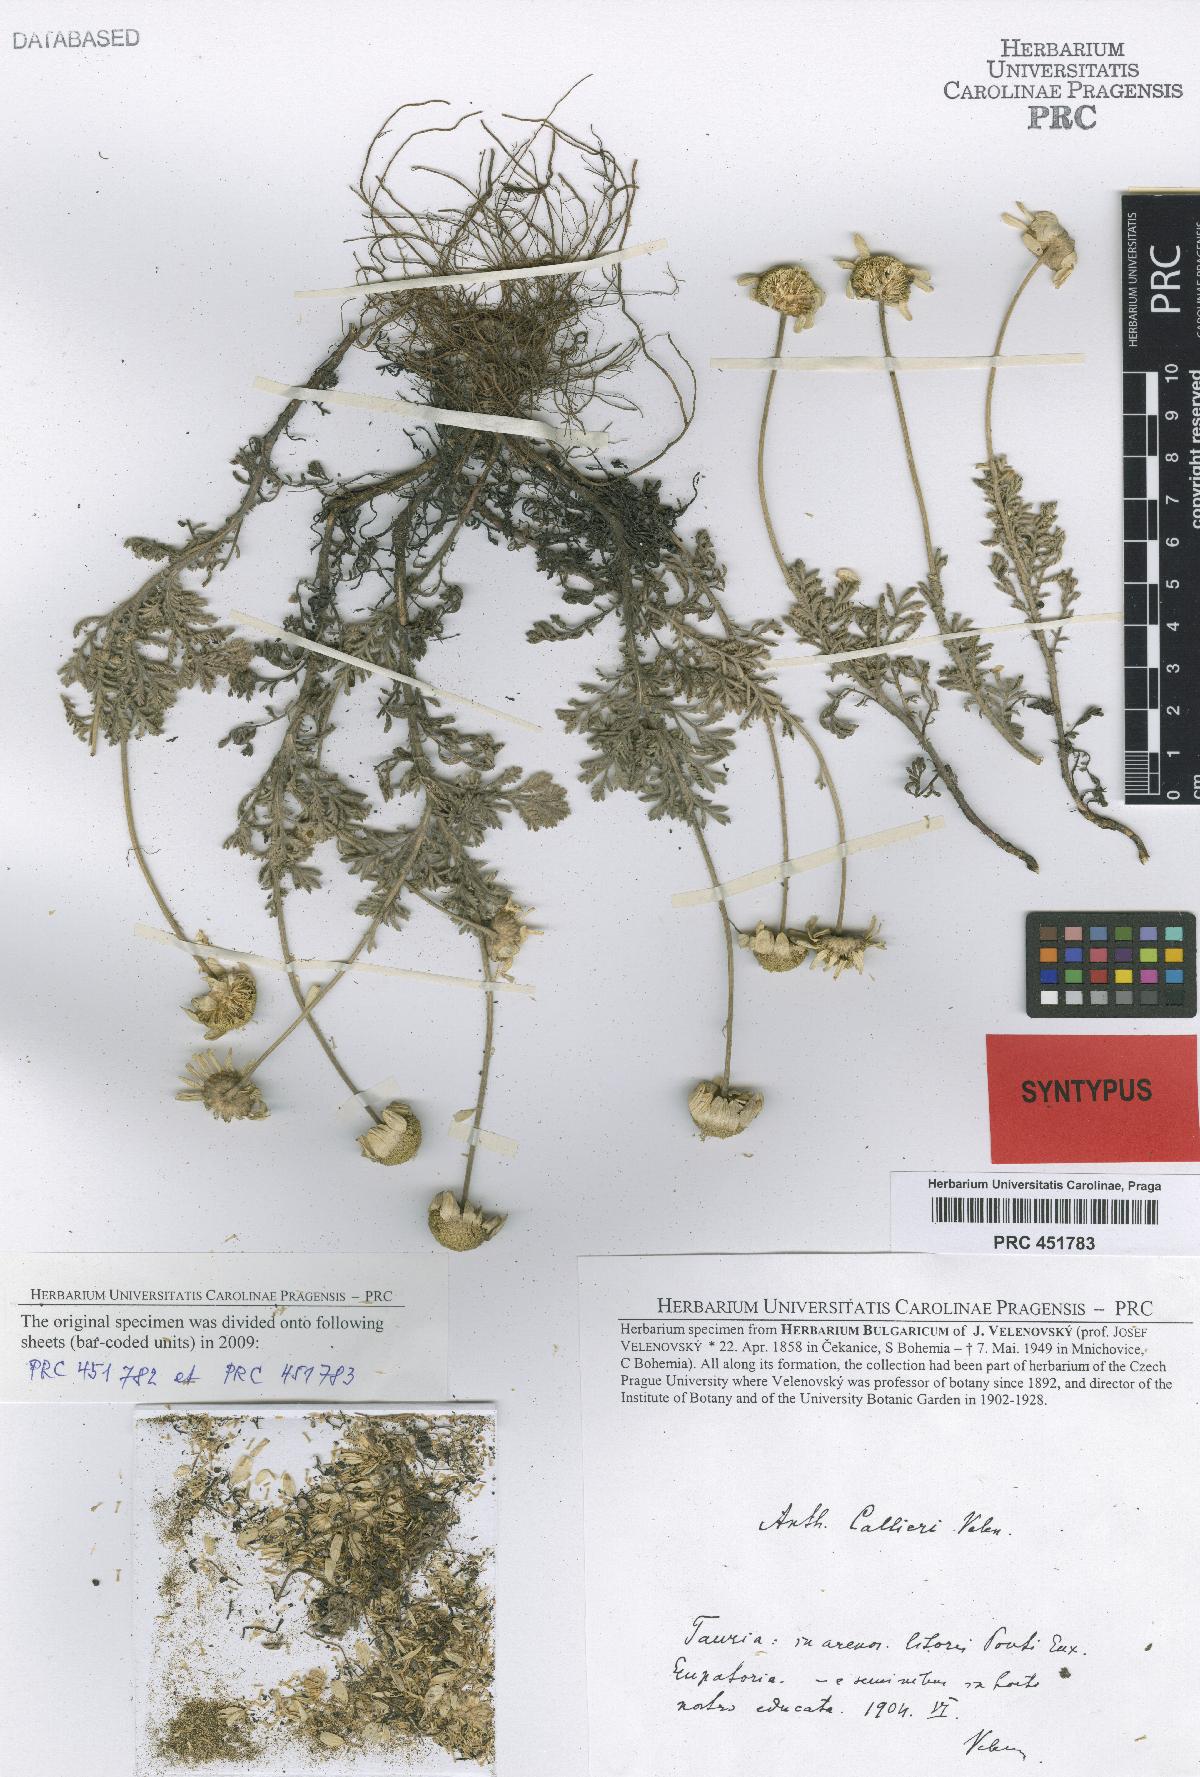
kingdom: Plantae
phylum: Tracheophyta
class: Magnoliopsida
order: Asterales
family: Asteraceae
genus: Cota
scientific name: Cota dubia
